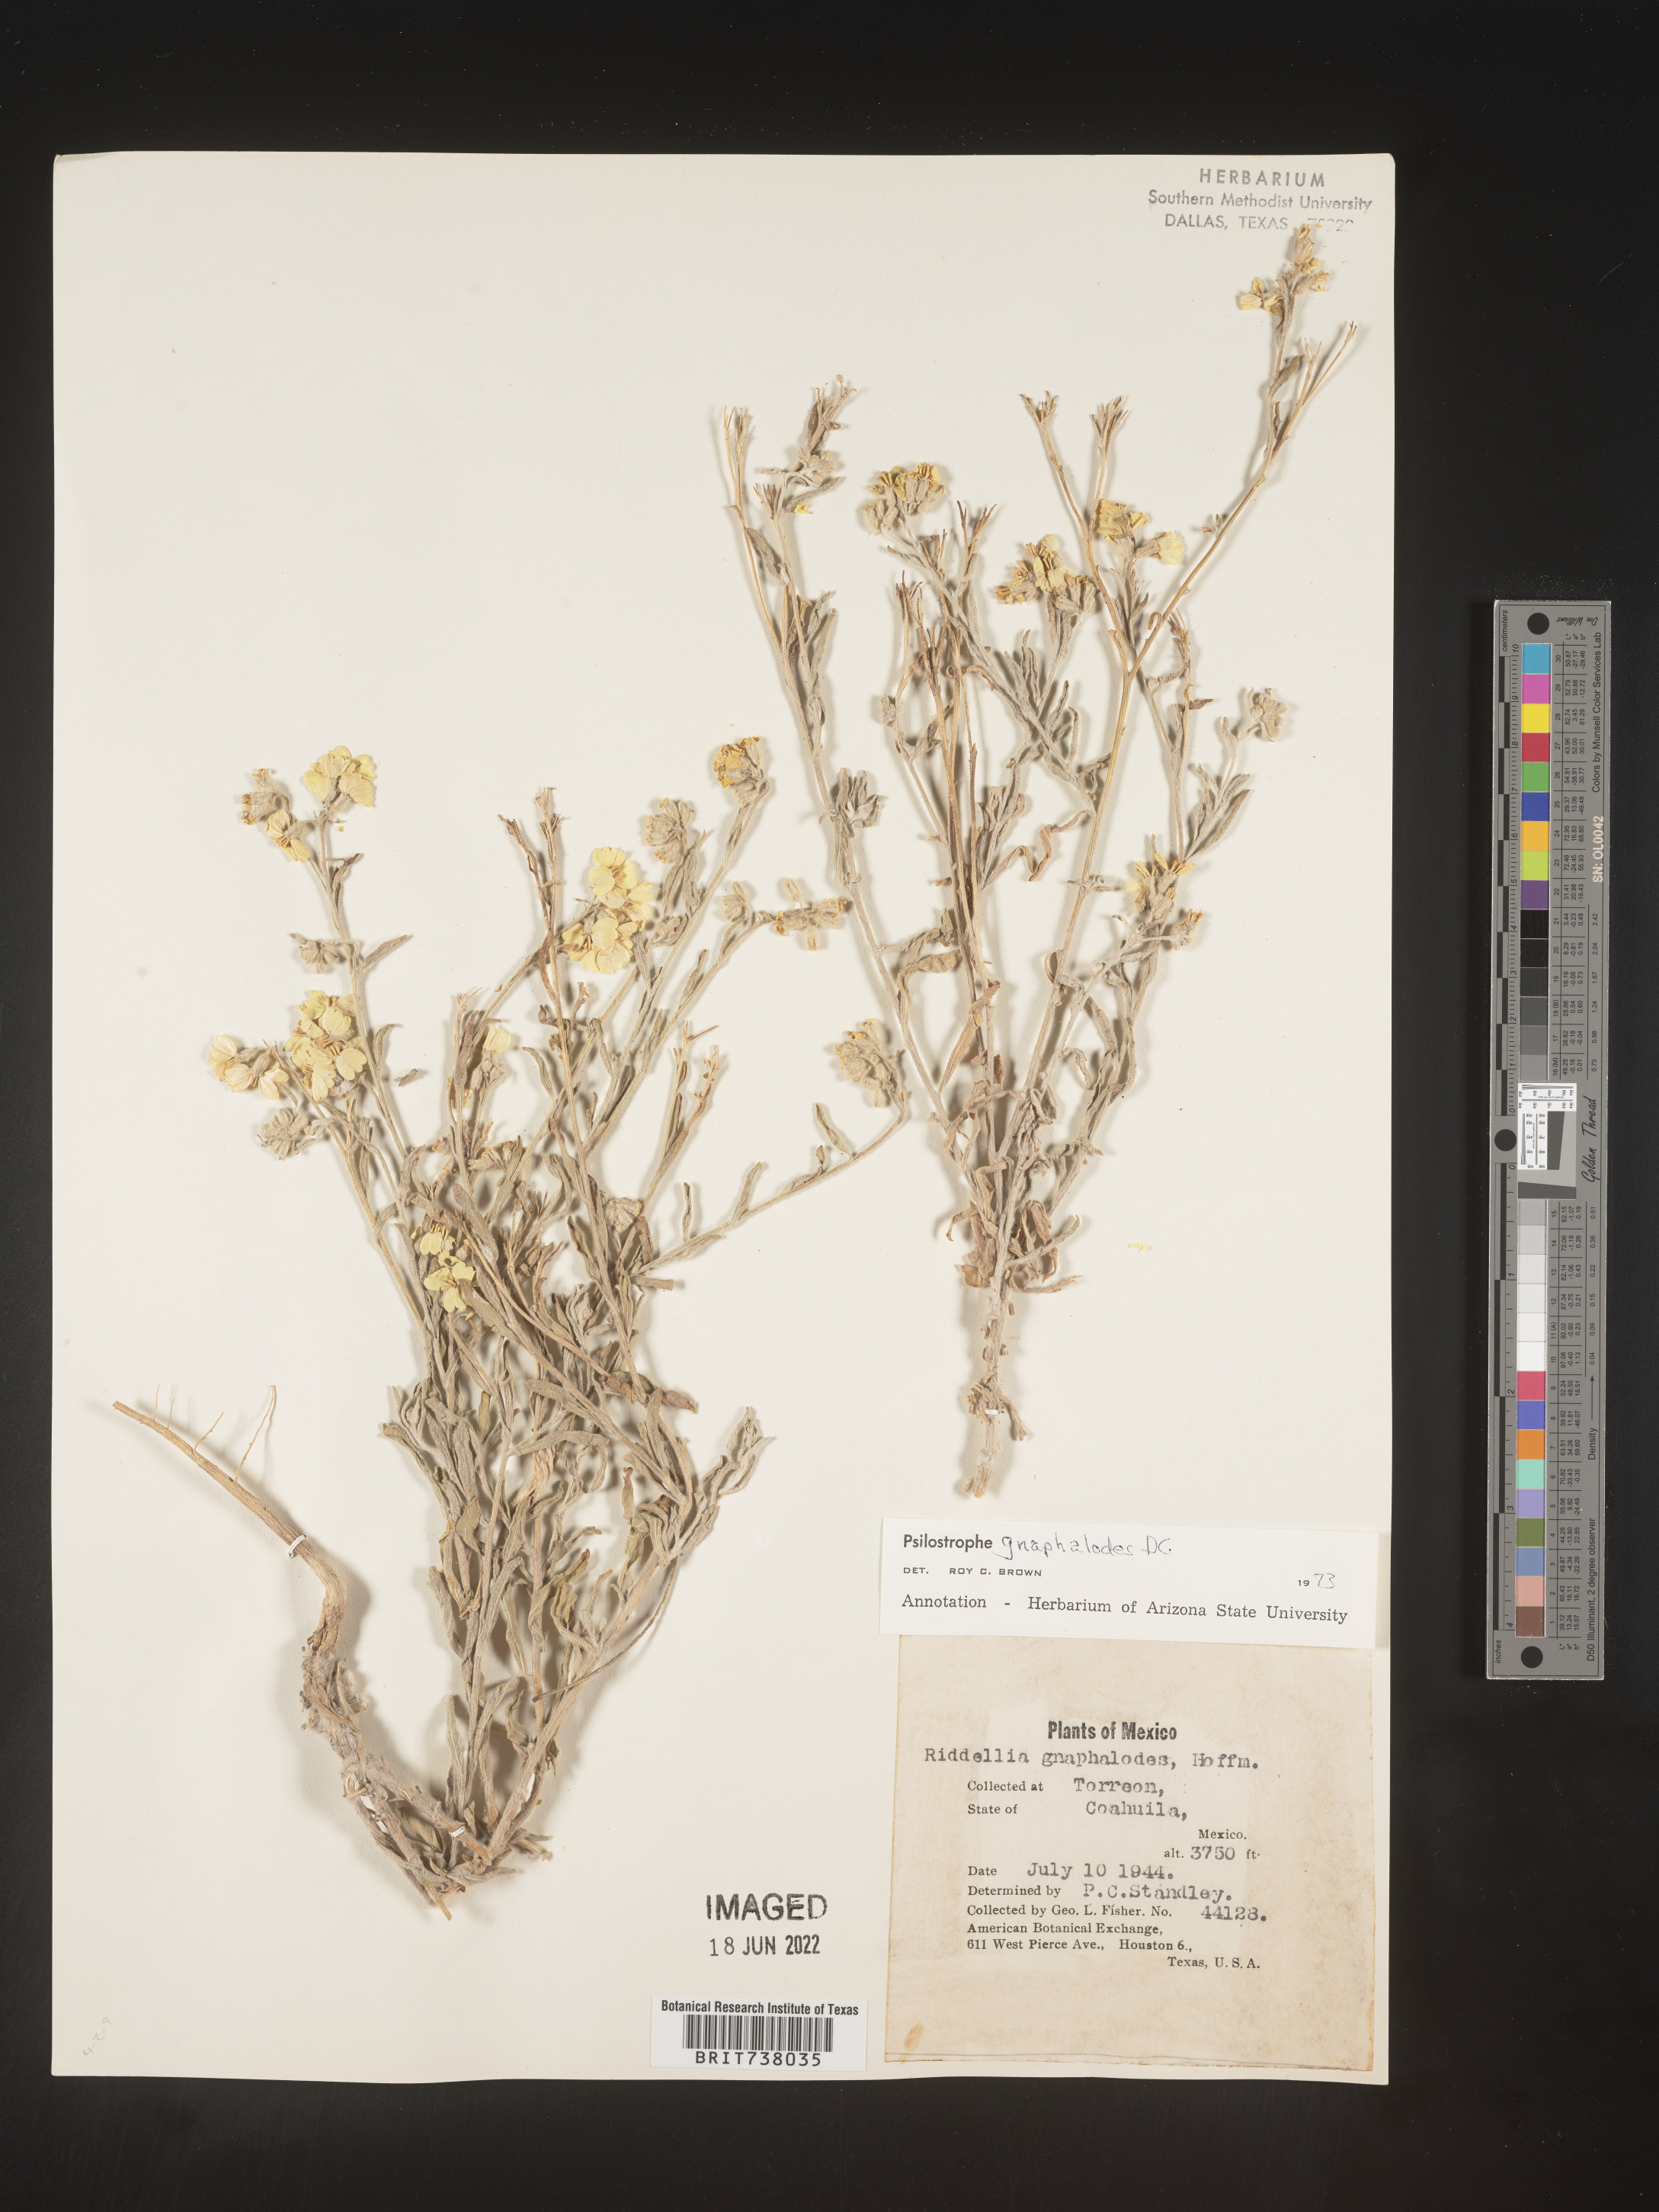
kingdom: Plantae
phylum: Tracheophyta
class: Magnoliopsida
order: Asterales
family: Asteraceae
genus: Psilostrophe
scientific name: Psilostrophe
